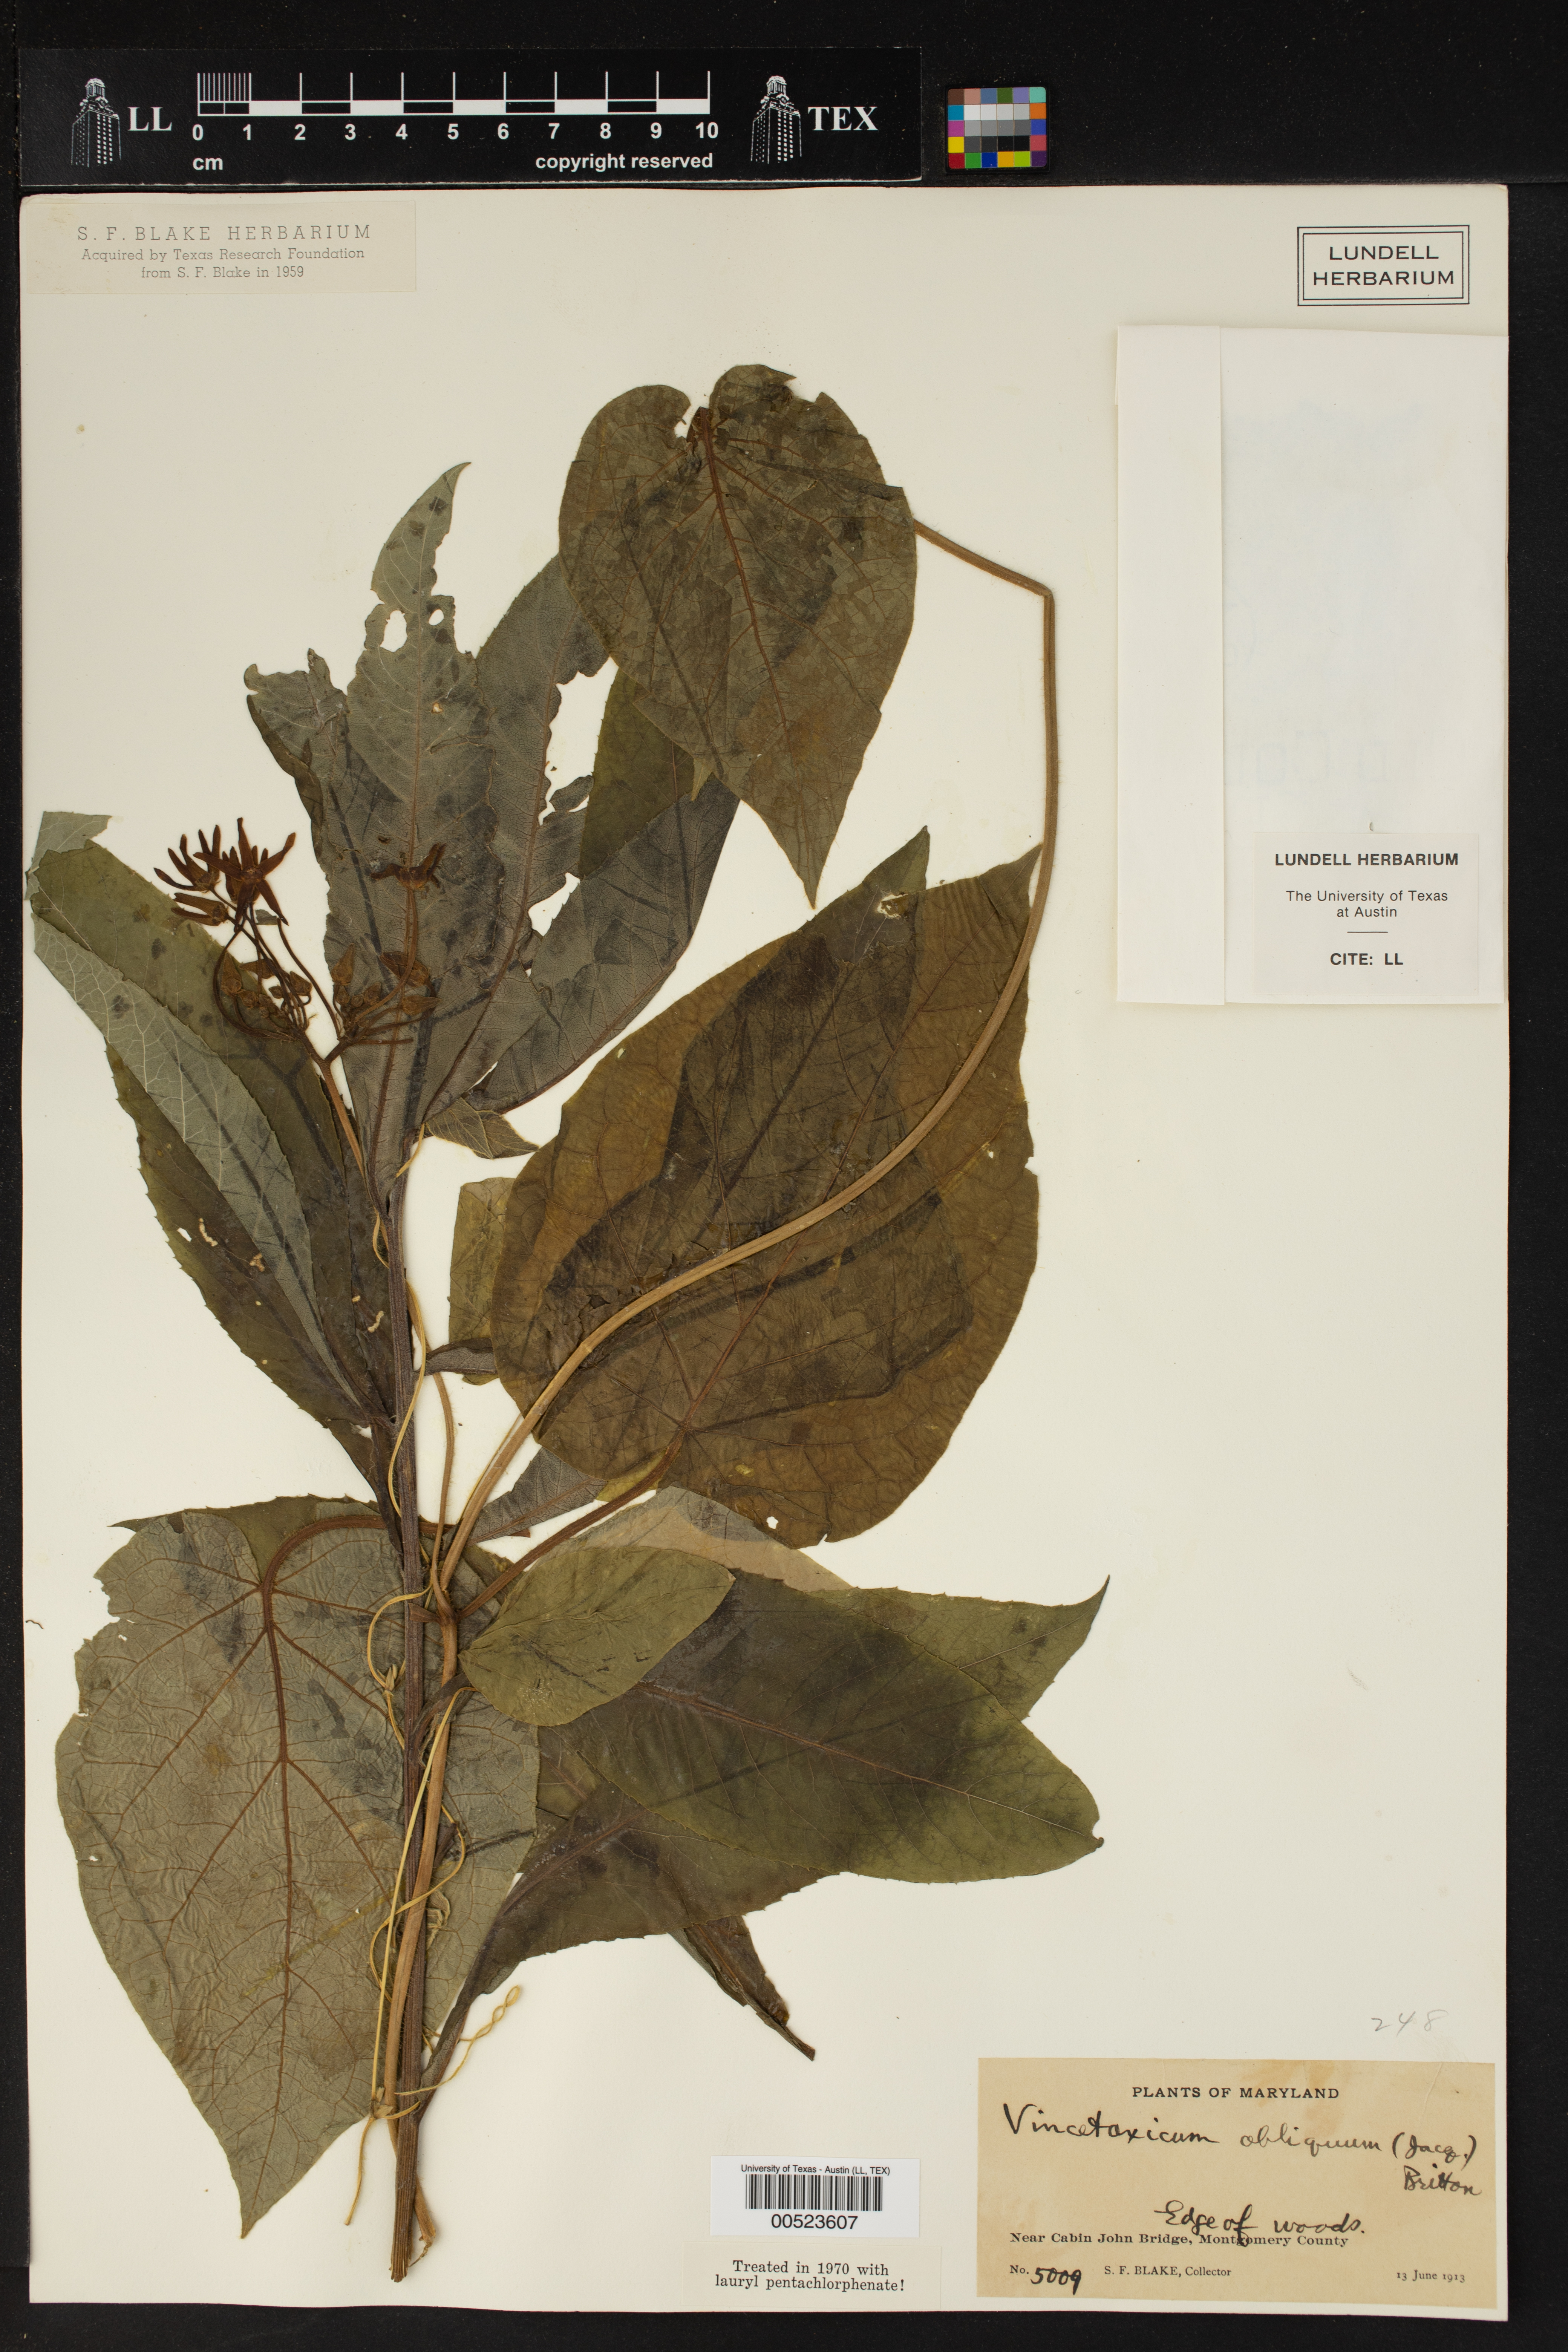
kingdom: Plantae
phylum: Tracheophyta
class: Magnoliopsida
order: Gentianales
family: Apocynaceae
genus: Matelea
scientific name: Matelea obliqua
